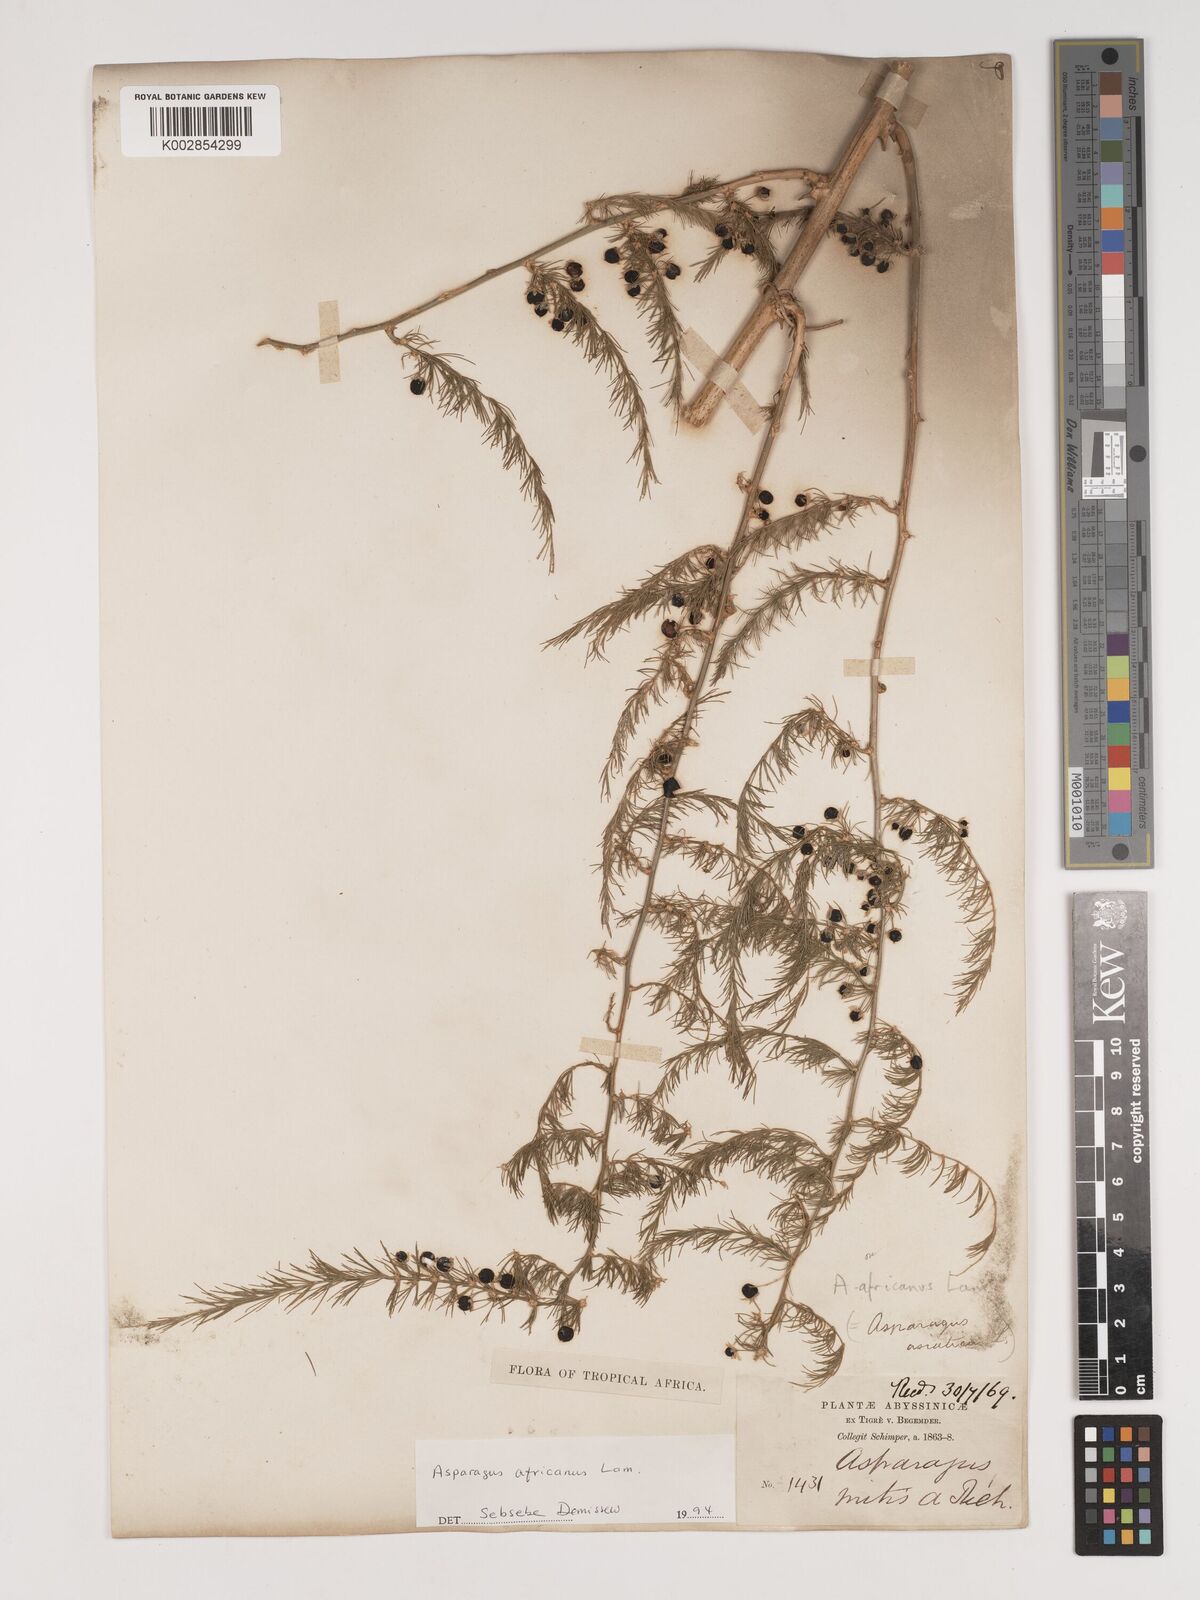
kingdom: Plantae
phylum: Tracheophyta
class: Liliopsida
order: Asparagales
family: Asparagaceae
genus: Asparagus
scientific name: Asparagus africanus
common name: Asparagus-fern
